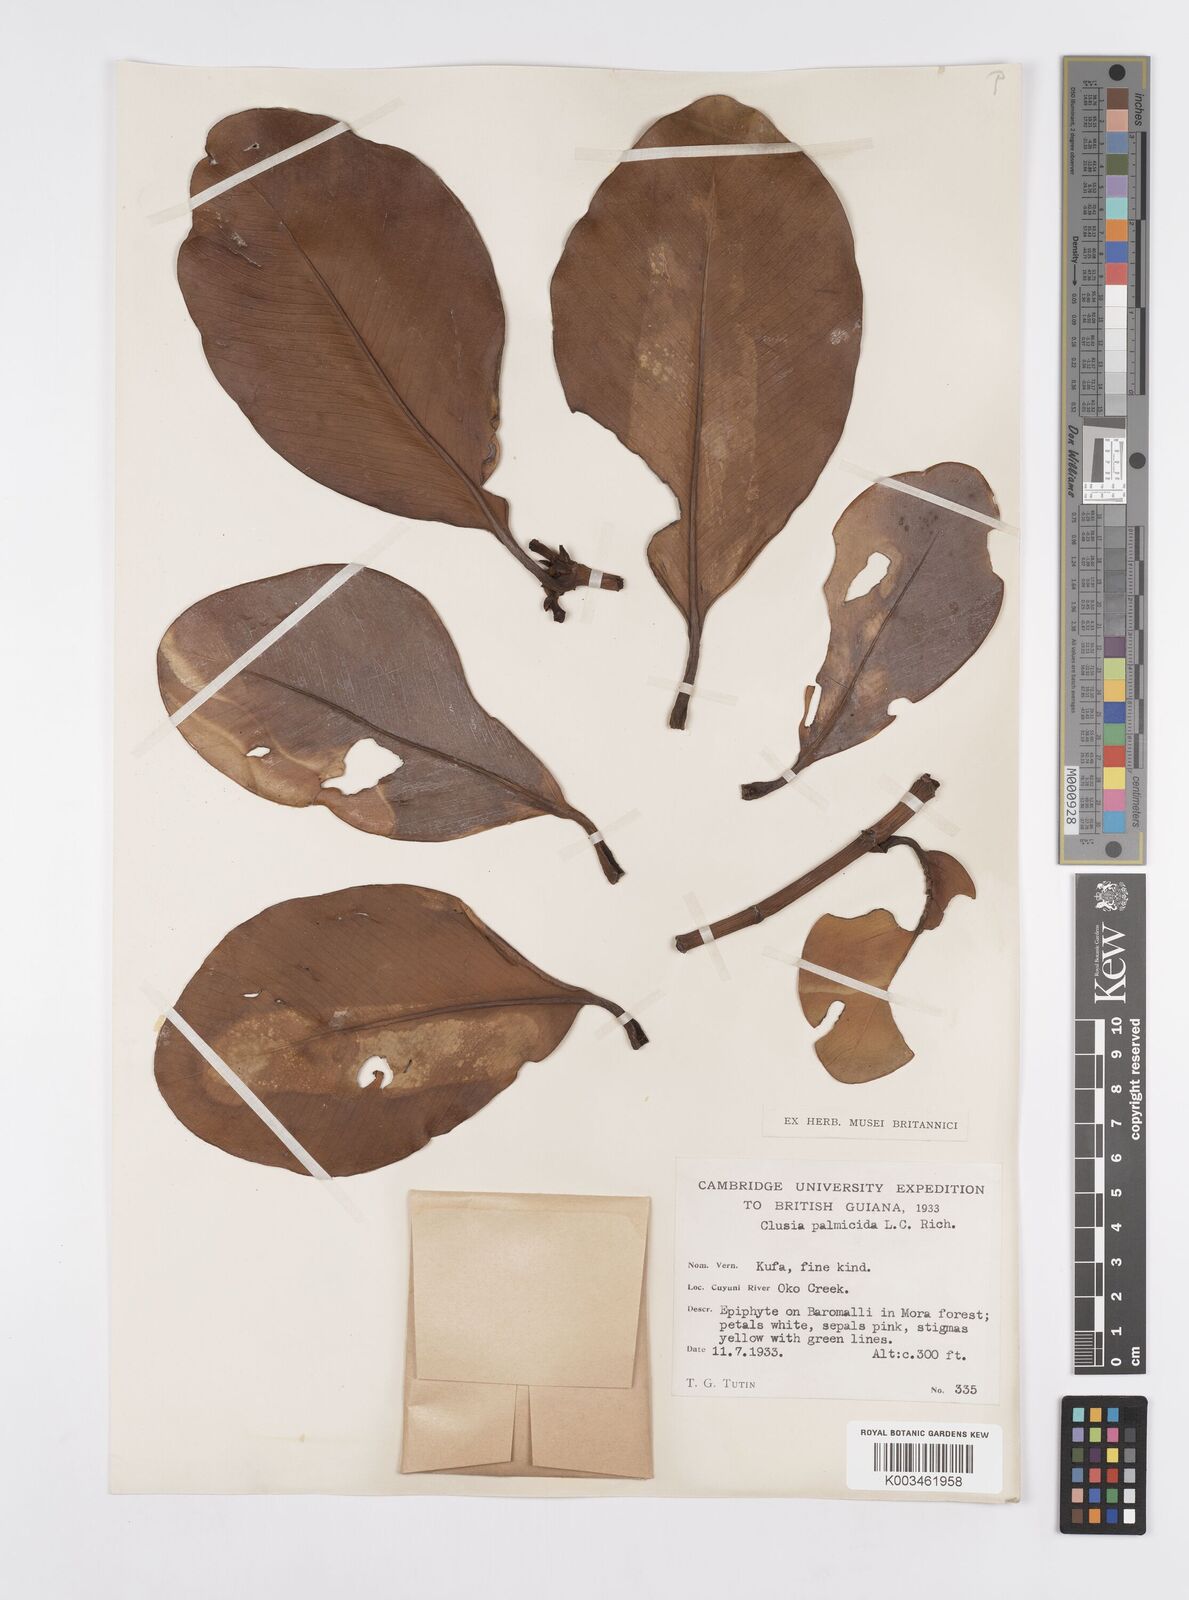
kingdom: Plantae
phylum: Tracheophyta
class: Magnoliopsida
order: Malpighiales
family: Clusiaceae
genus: Clusia
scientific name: Clusia palmicida
